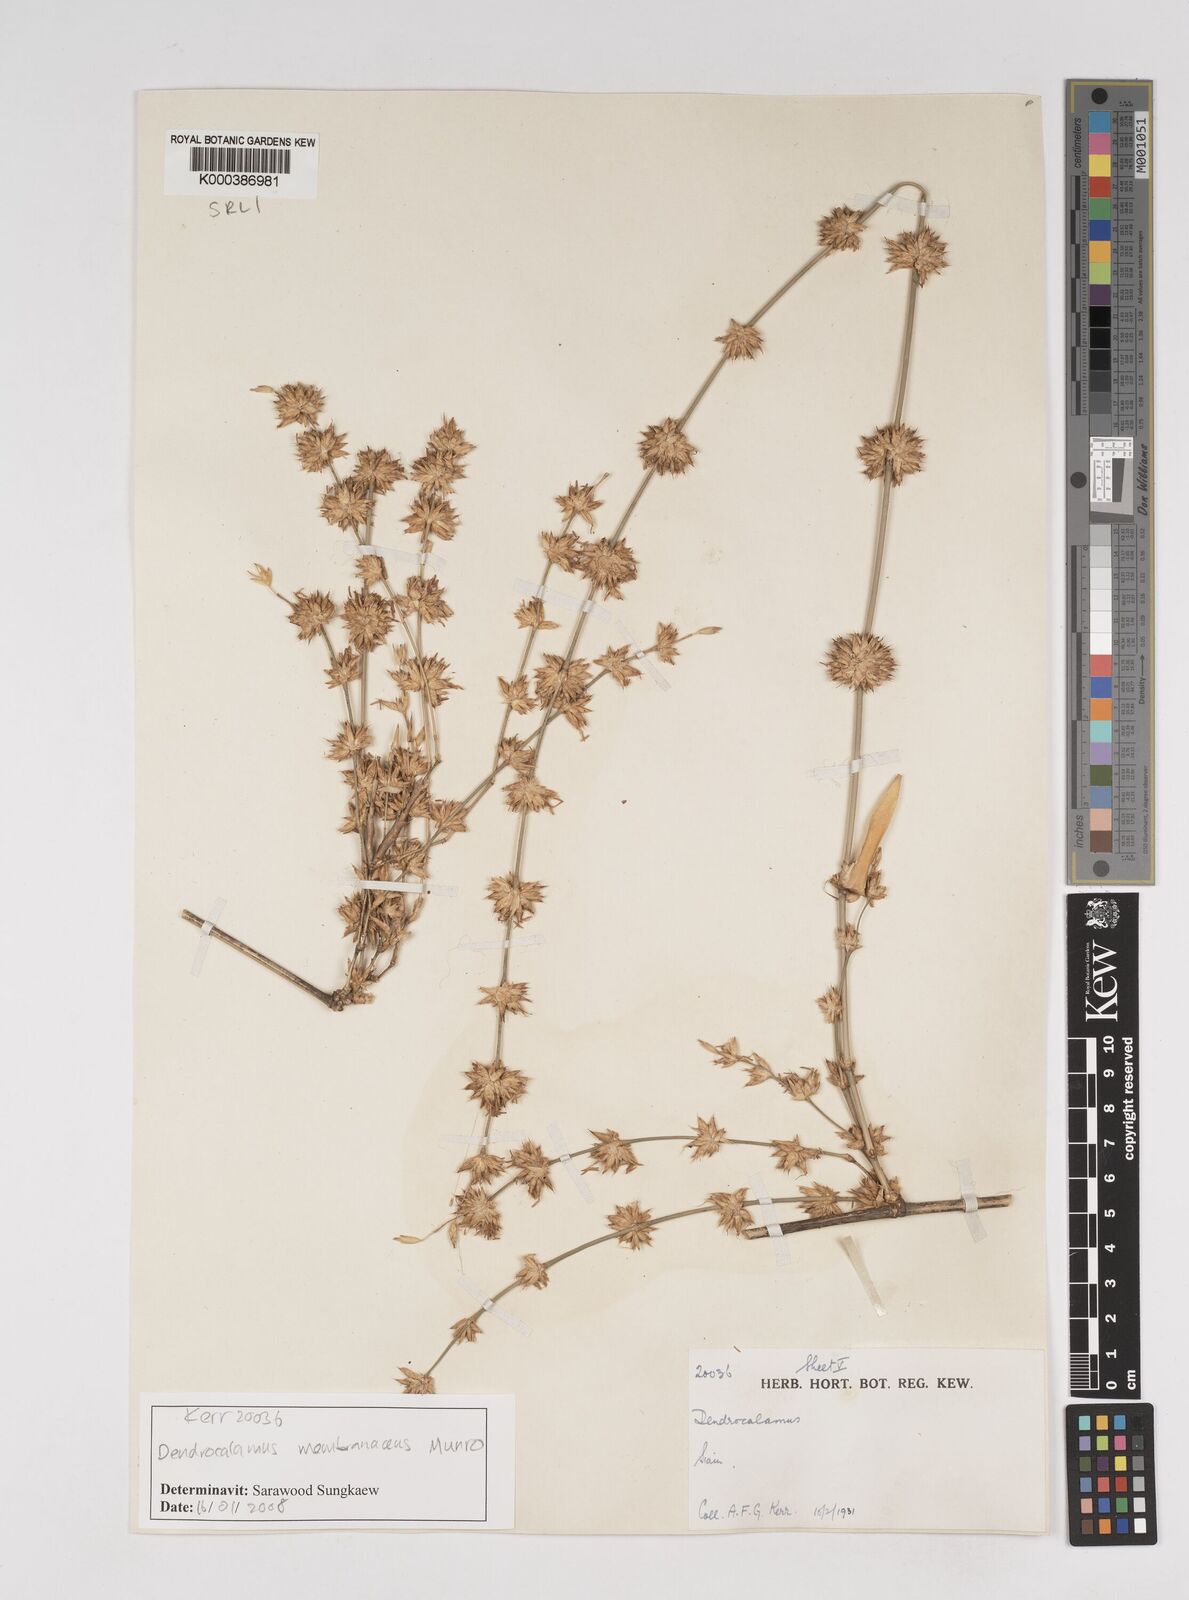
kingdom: Plantae
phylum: Tracheophyta
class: Liliopsida
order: Poales
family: Poaceae
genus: Dendrocalamus
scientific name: Dendrocalamus membranaceus
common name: White bamboo
